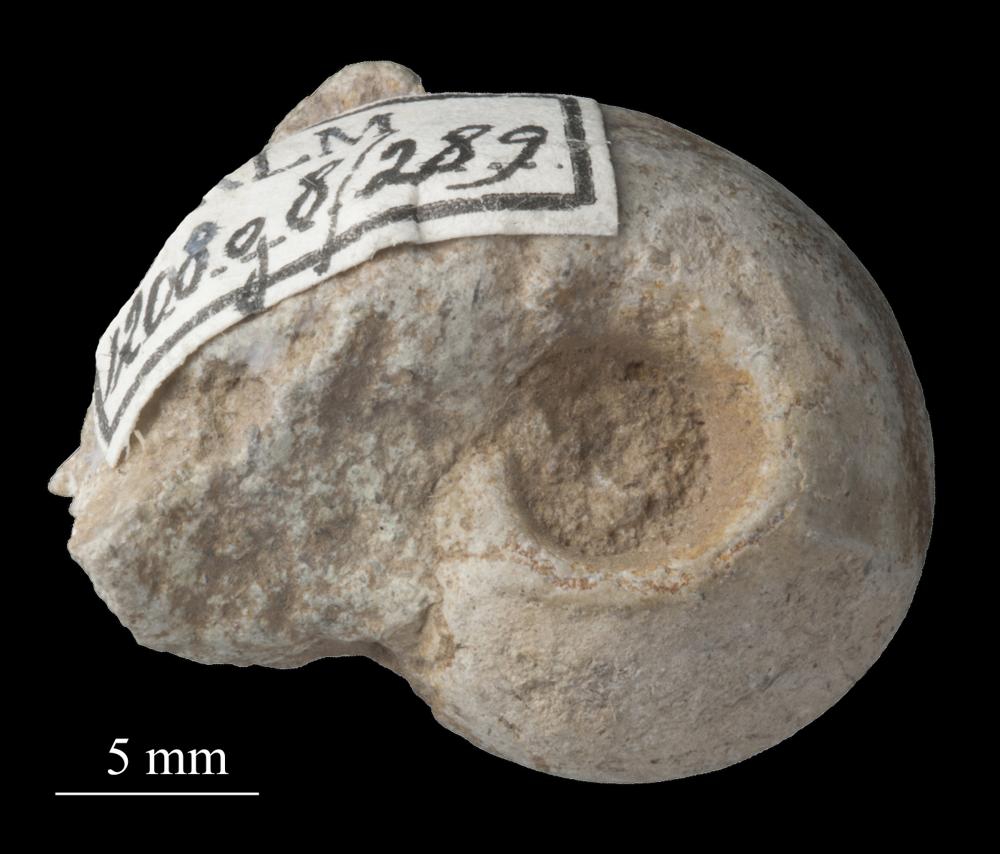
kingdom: Animalia
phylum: Mollusca
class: Gastropoda
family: Bellerophontidae
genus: Bellerophon
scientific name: Bellerophon
